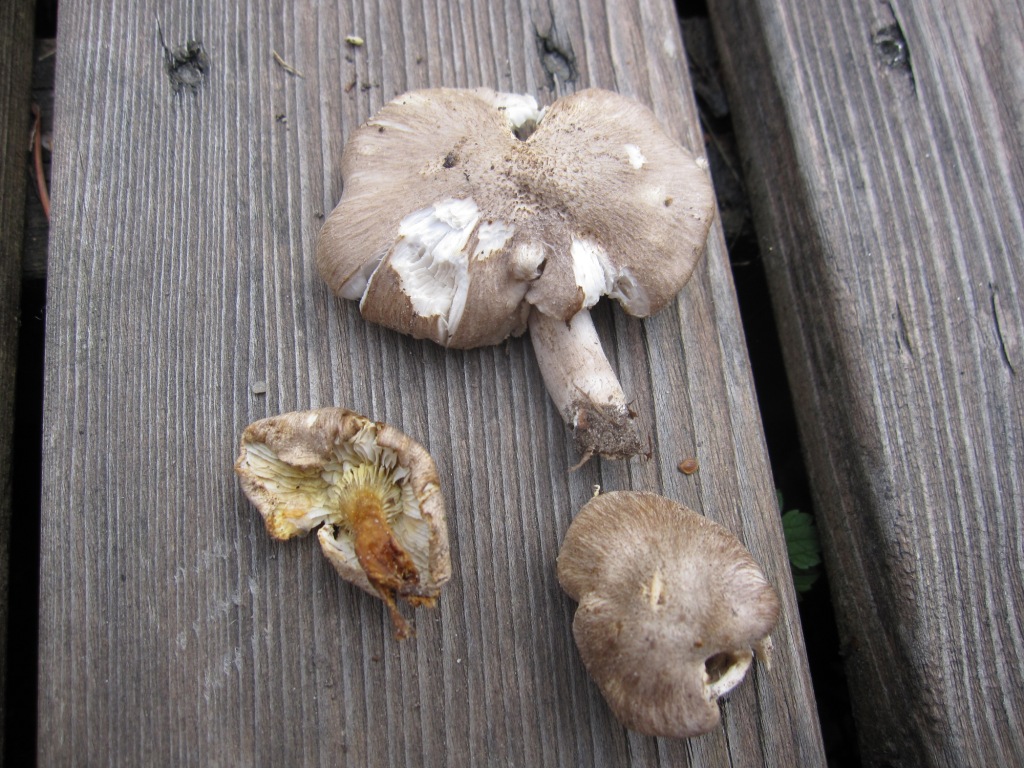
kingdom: Fungi
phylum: Basidiomycota
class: Agaricomycetes
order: Agaricales
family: Tricholomataceae
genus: Tricholoma
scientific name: Tricholoma scalpturatum
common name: gulplettet ridderhat
